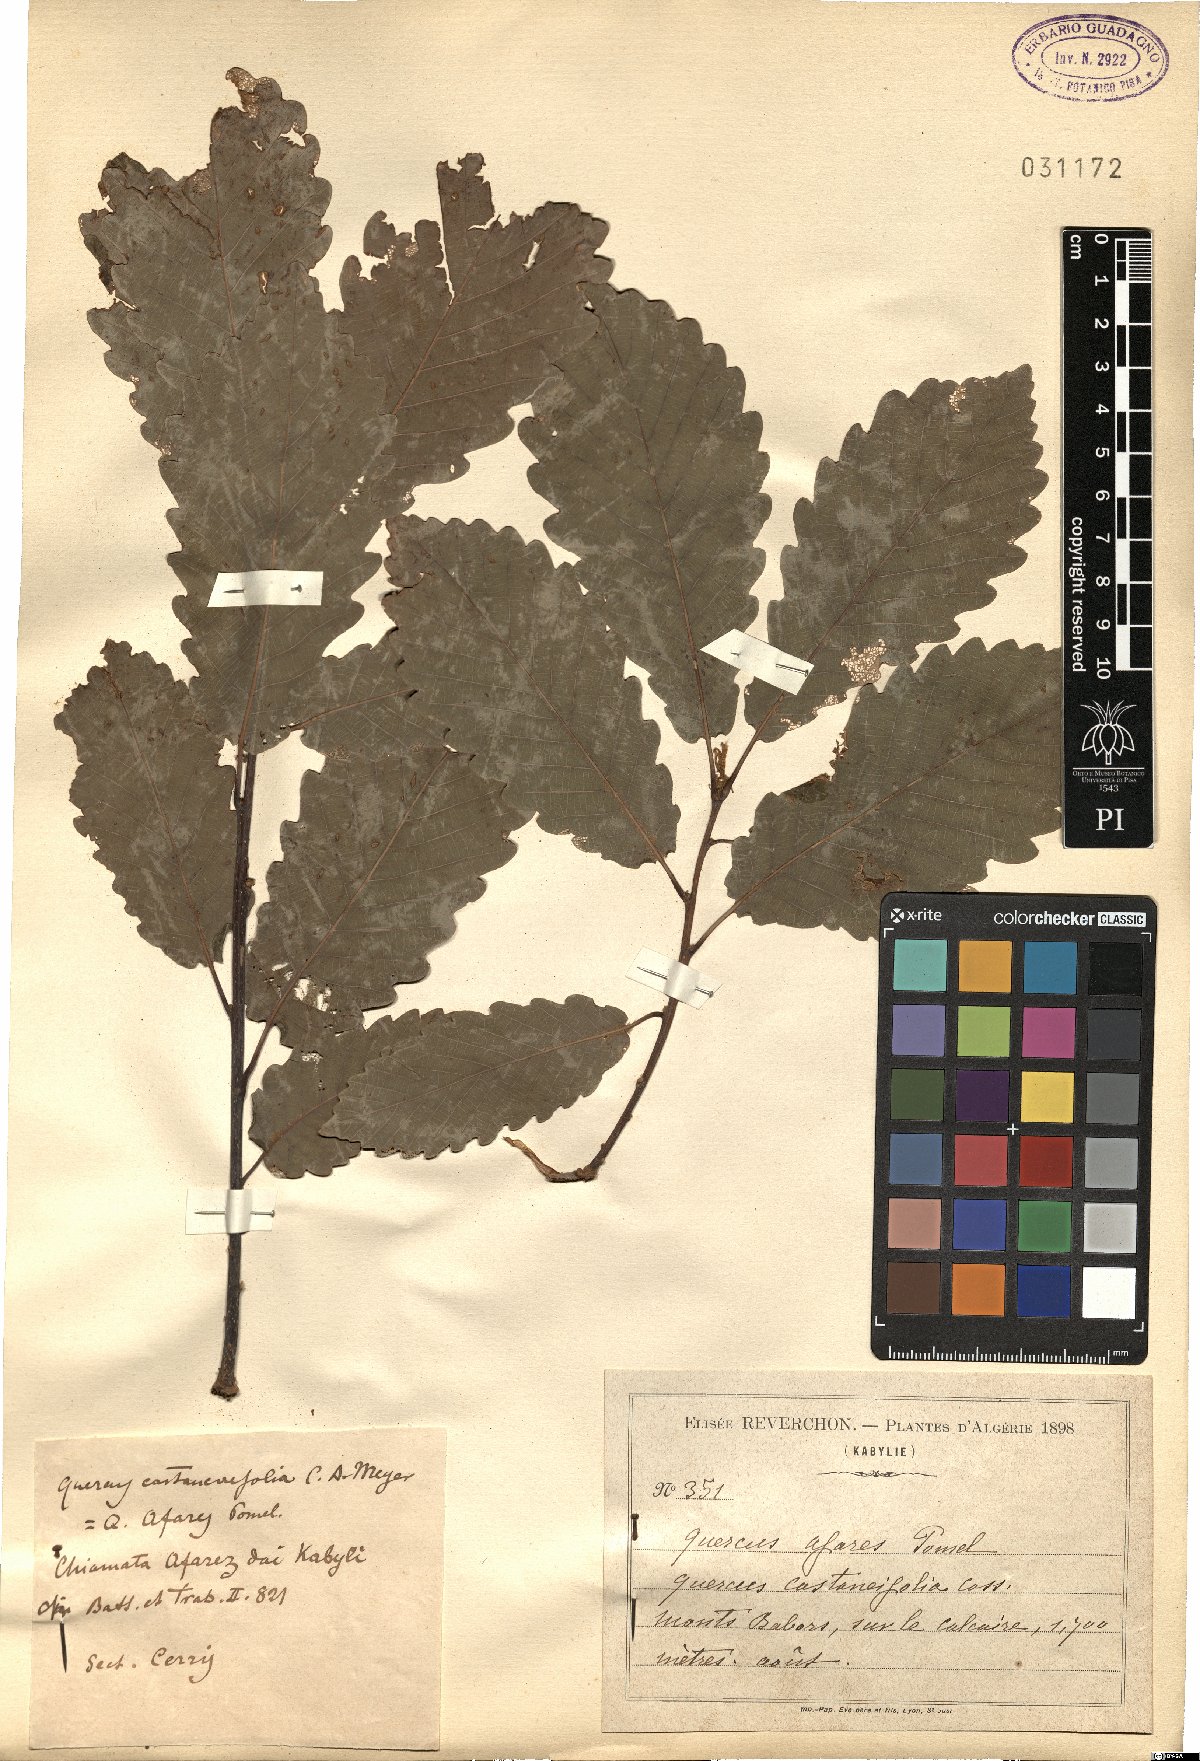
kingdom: Plantae
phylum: Tracheophyta
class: Magnoliopsida
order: Fagales
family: Fagaceae
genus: Quercus
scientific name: Quercus afares
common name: African oak
